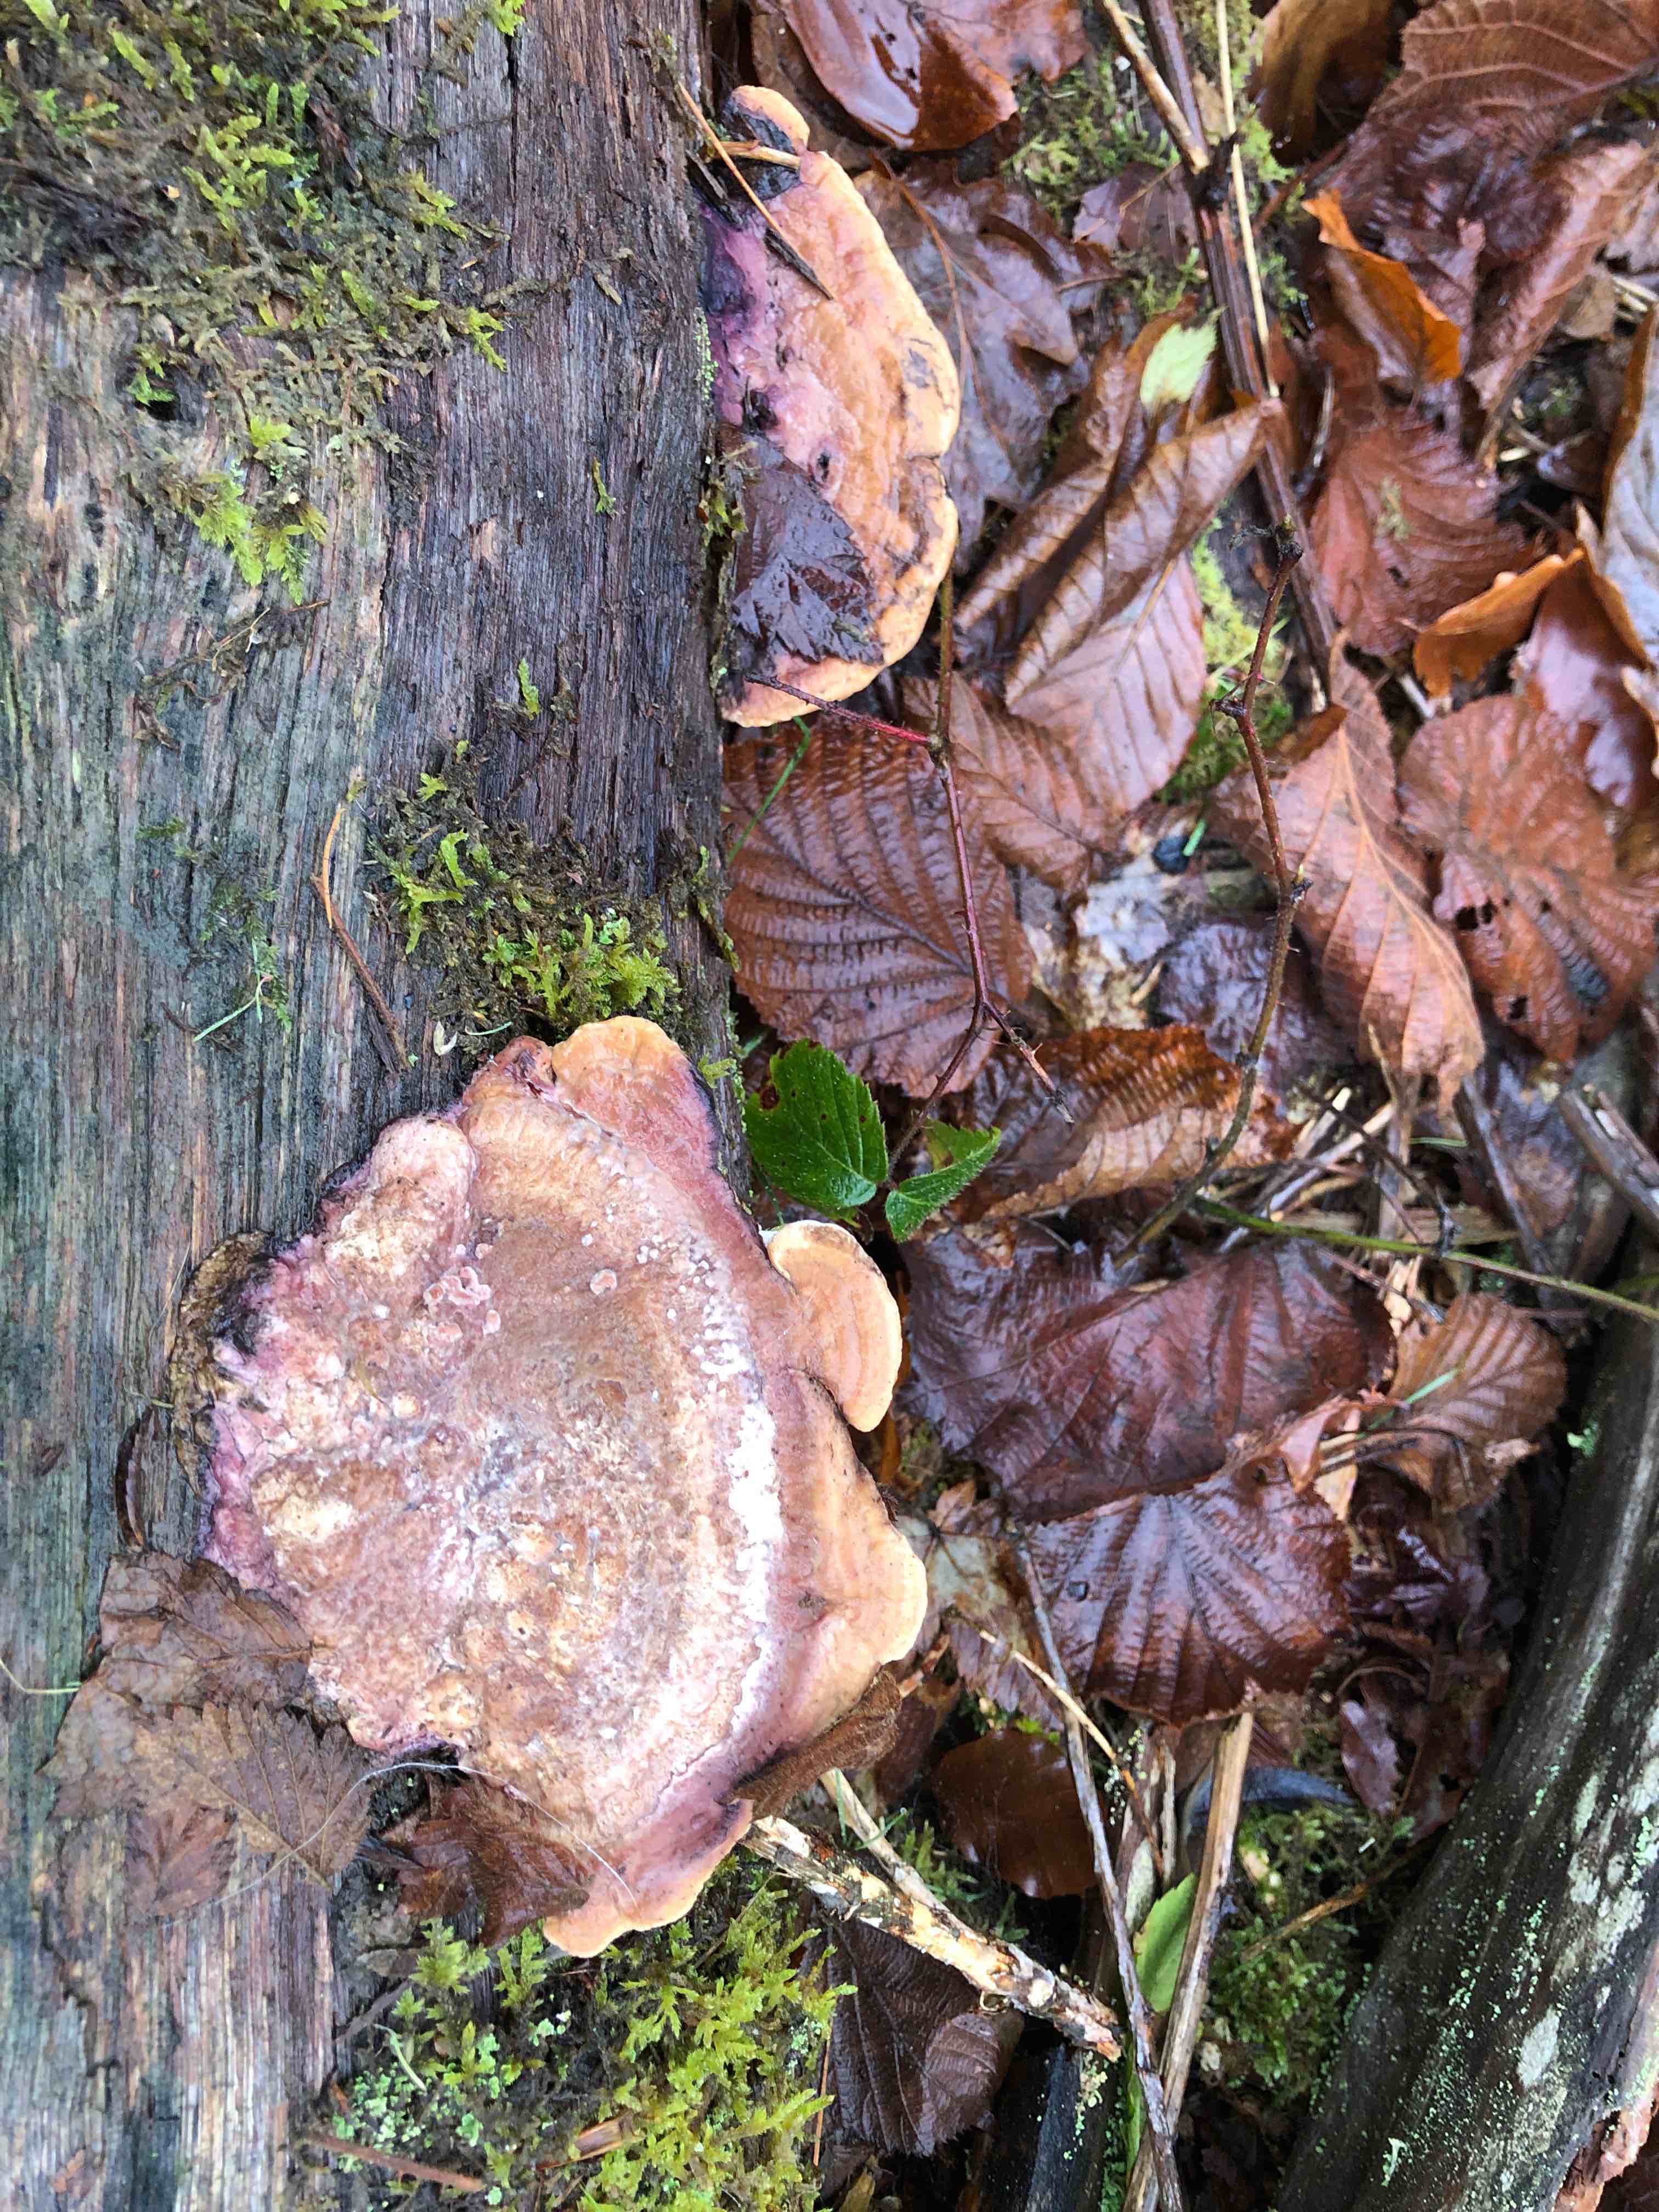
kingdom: Fungi
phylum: Basidiomycota
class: Agaricomycetes
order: Polyporales
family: Fomitopsidaceae
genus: Daedalea
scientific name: Daedalea quercina
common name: ege-labyrintsvamp
